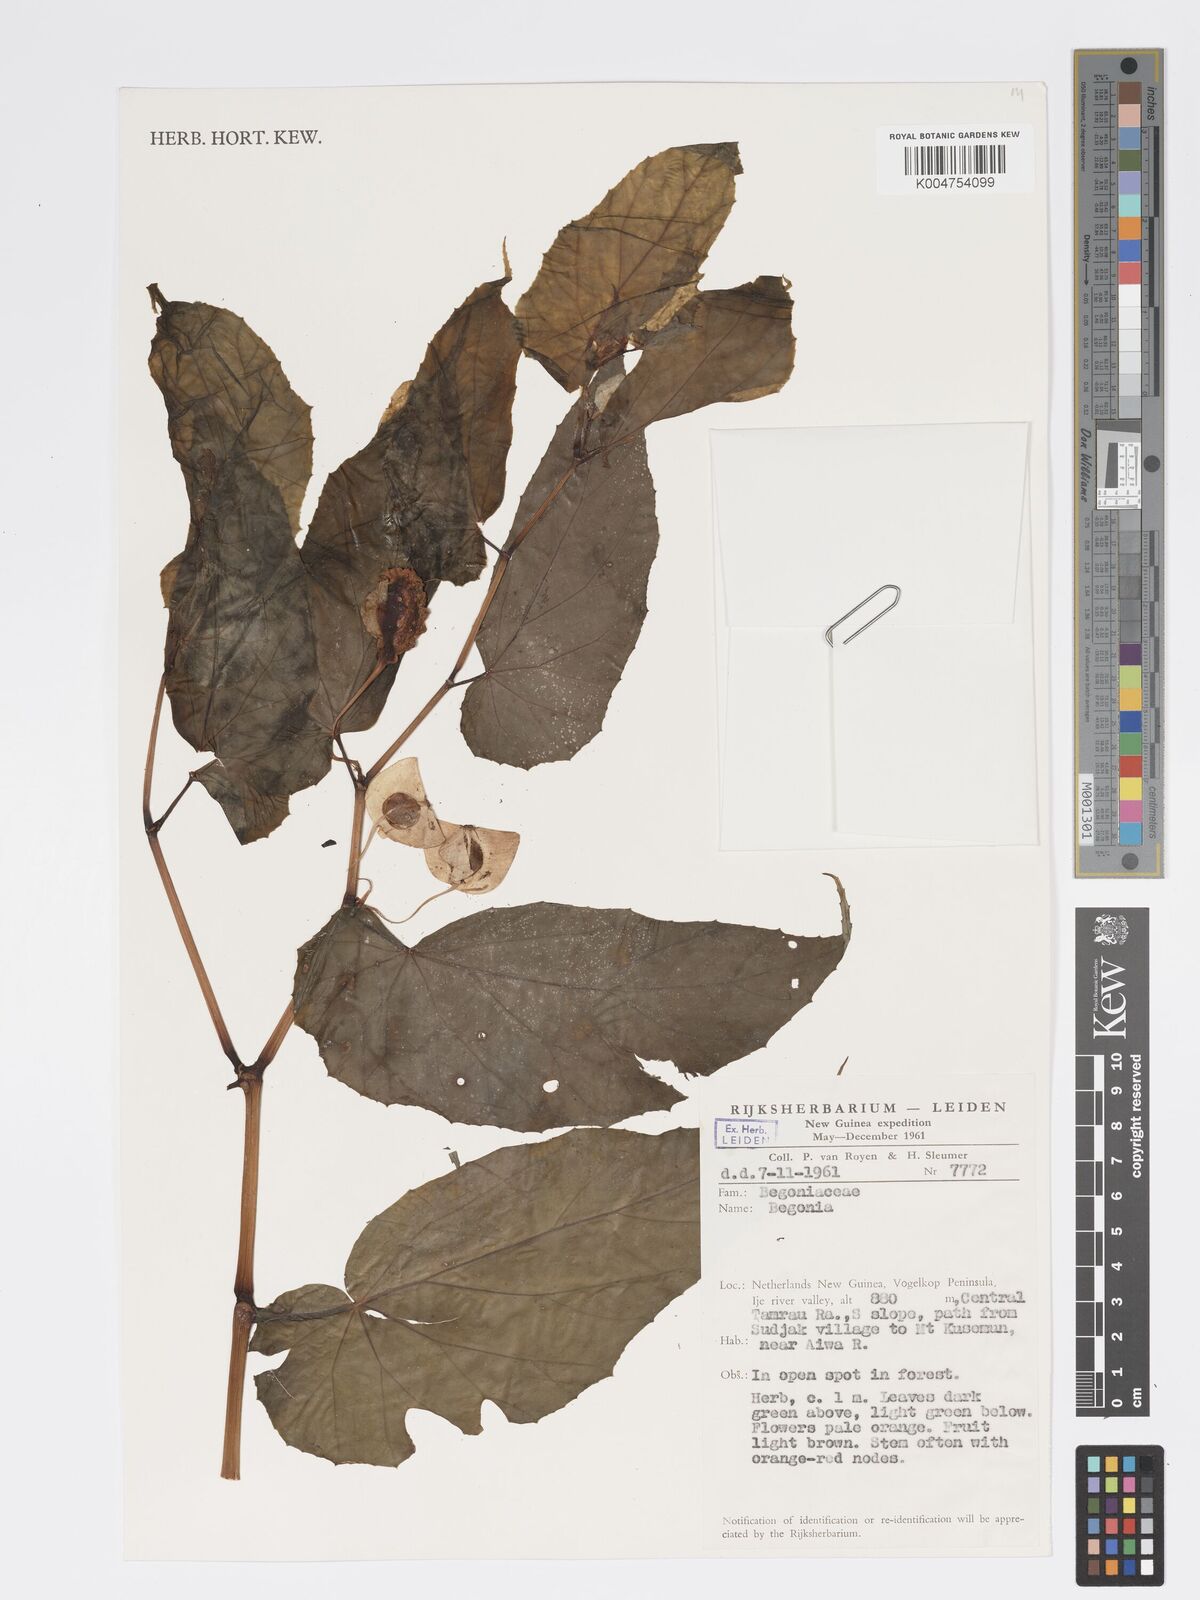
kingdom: Plantae
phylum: Tracheophyta
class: Magnoliopsida
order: Cucurbitales
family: Begoniaceae
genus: Begonia
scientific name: Begonia
